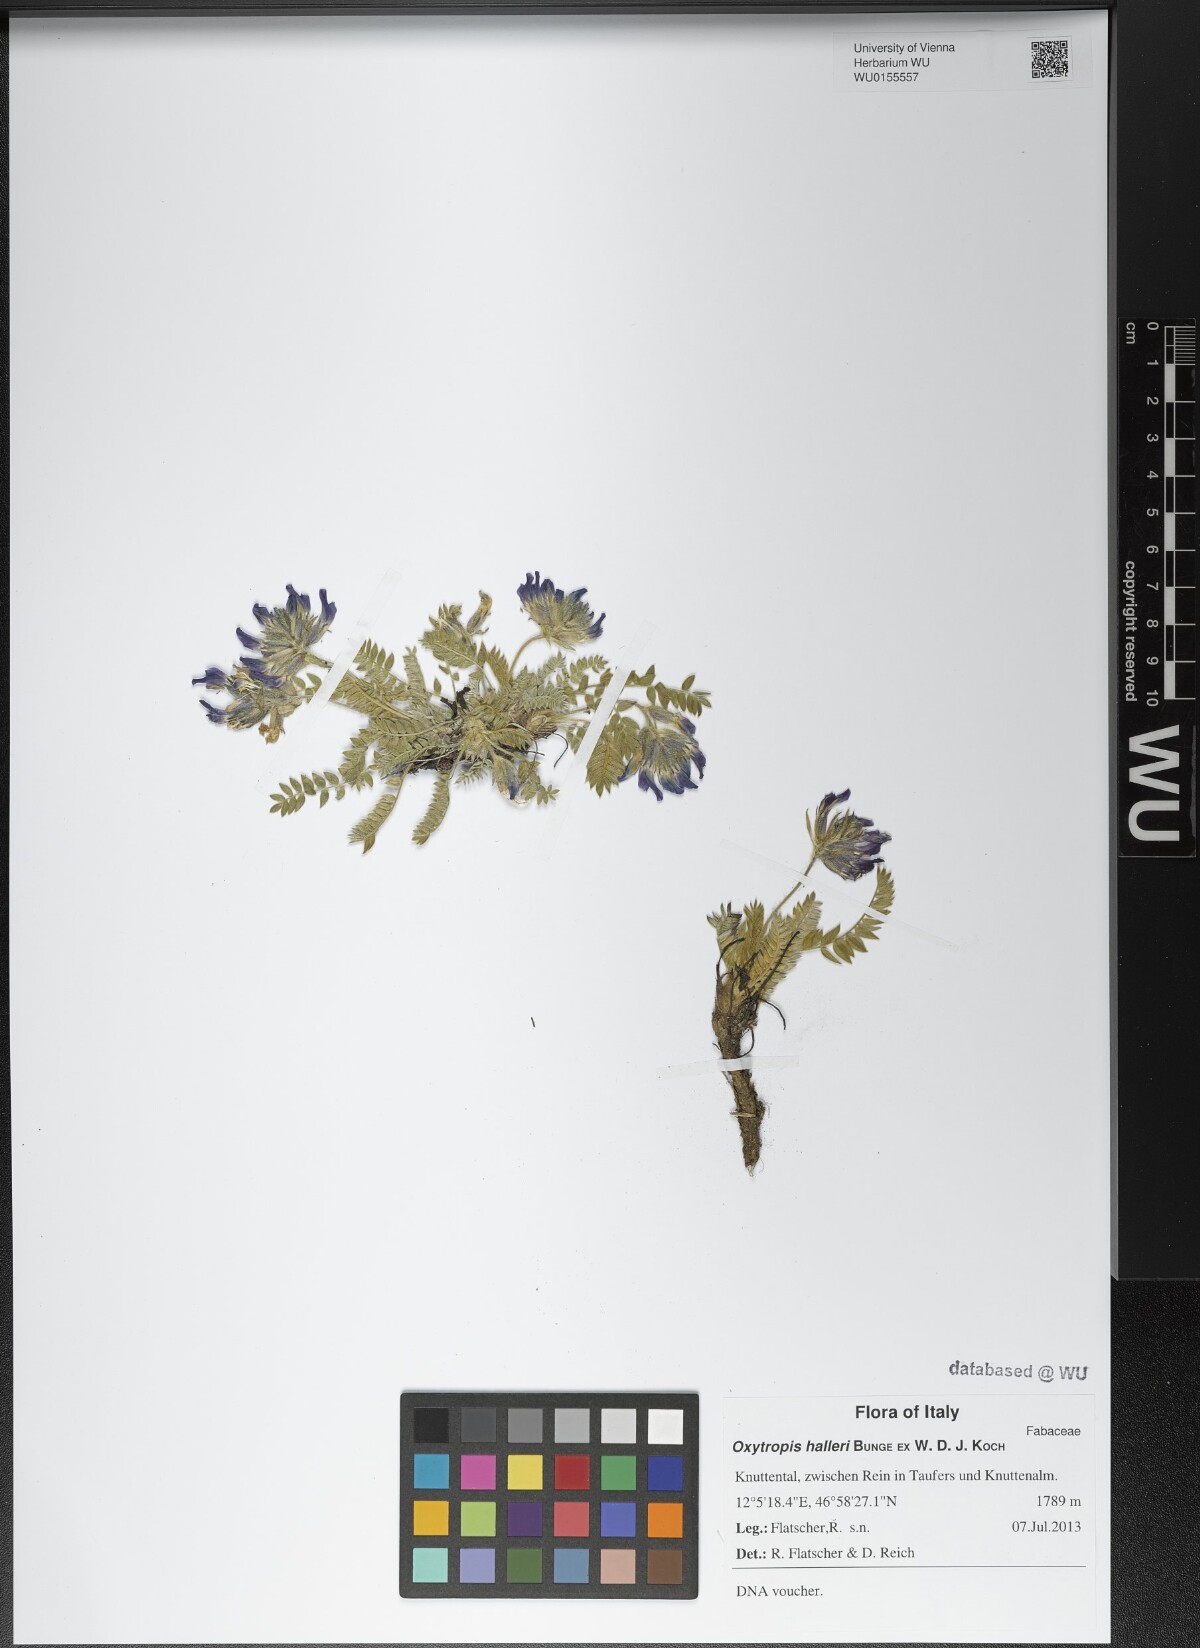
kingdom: Plantae
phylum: Tracheophyta
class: Magnoliopsida
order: Fabales
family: Fabaceae
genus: Oxytropis
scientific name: Oxytropis halleri
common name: Purple oxytropis
